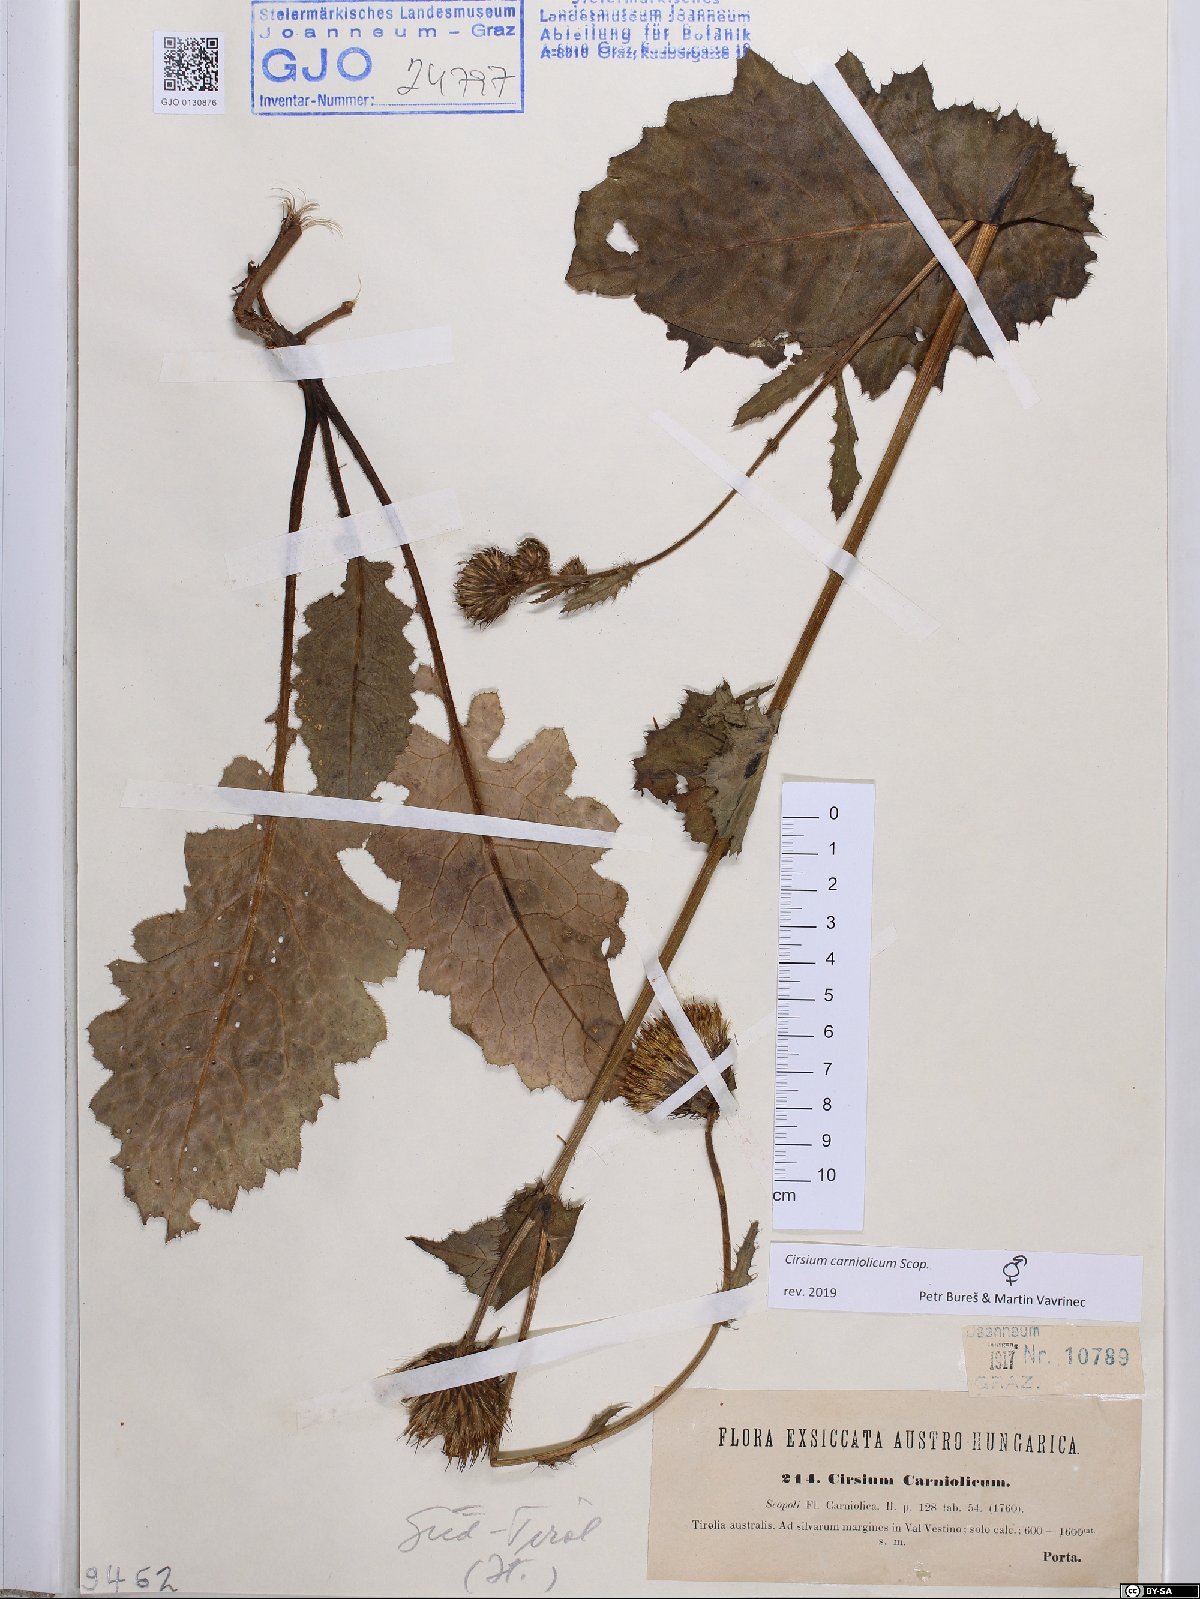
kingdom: Plantae
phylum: Tracheophyta
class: Magnoliopsida
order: Asterales
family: Asteraceae
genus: Cirsium
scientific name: Cirsium carniolicum
